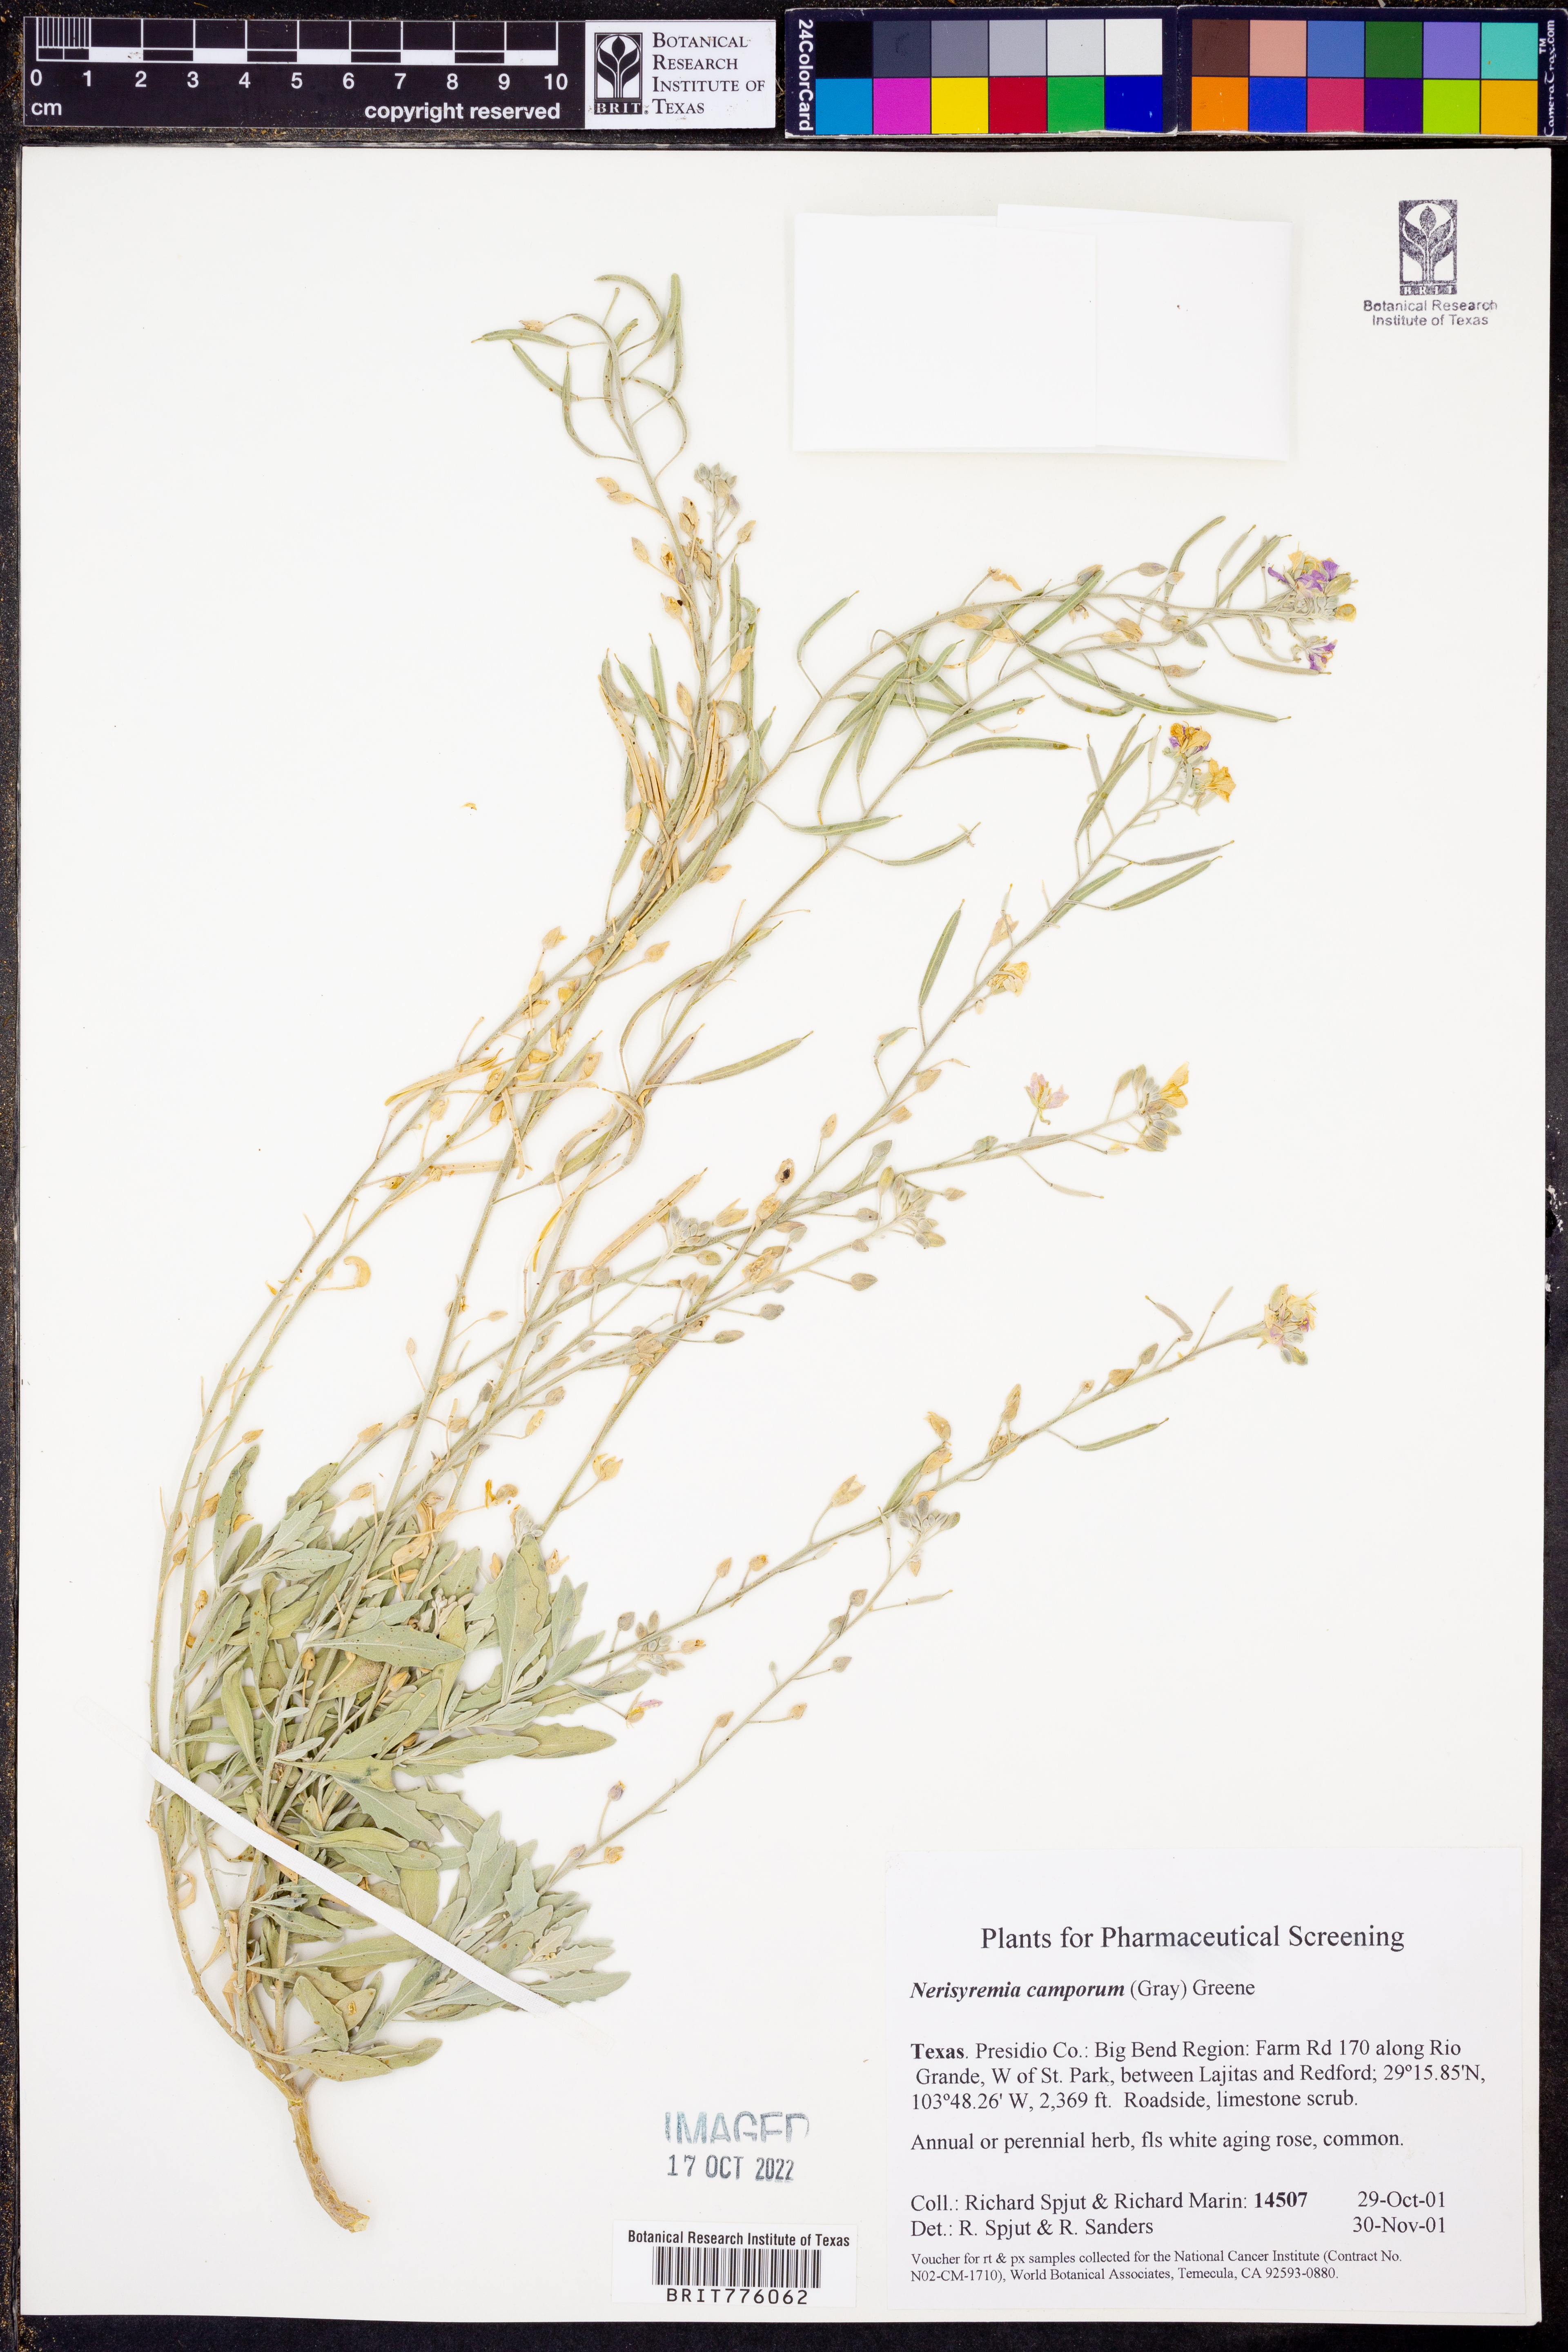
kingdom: Plantae
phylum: Tracheophyta
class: Magnoliopsida
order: Brassicales
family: Brassicaceae
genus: Nerisyrenia
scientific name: Nerisyrenia camporum
